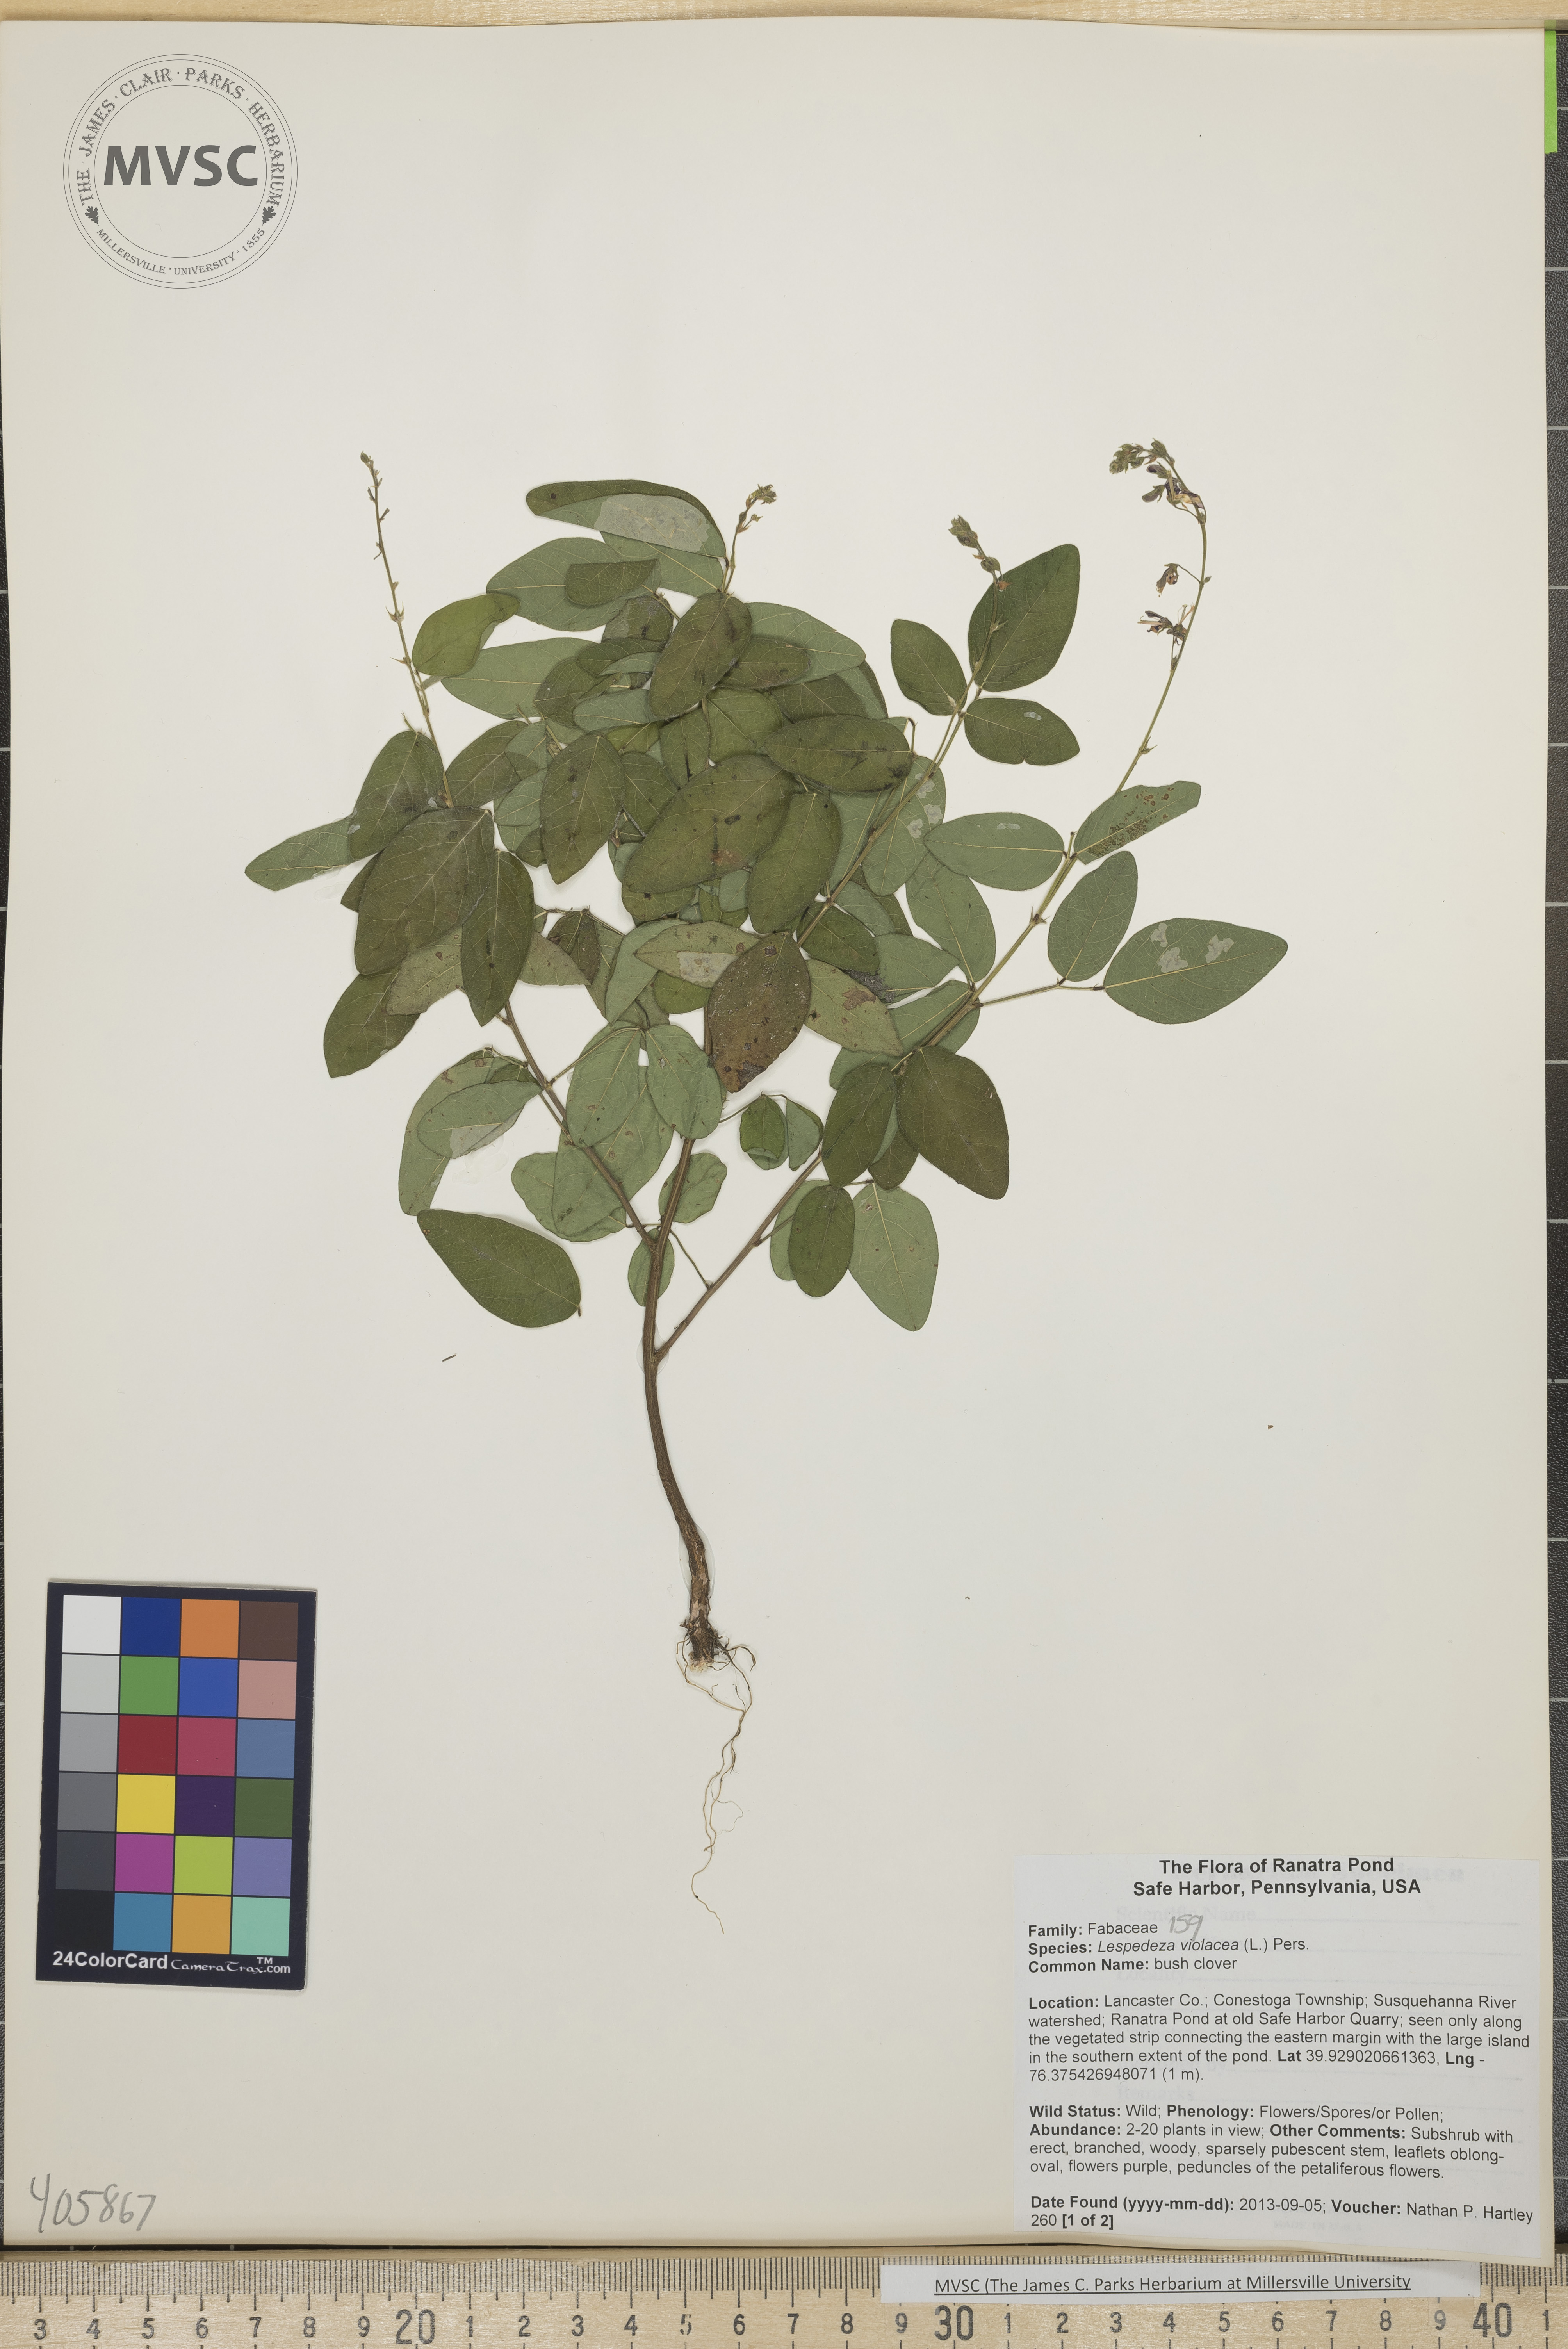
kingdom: Plantae
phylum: Tracheophyta
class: Magnoliopsida
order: Fabales
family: Fabaceae
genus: Lespedeza
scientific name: Lespedeza violacea
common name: bush clover
